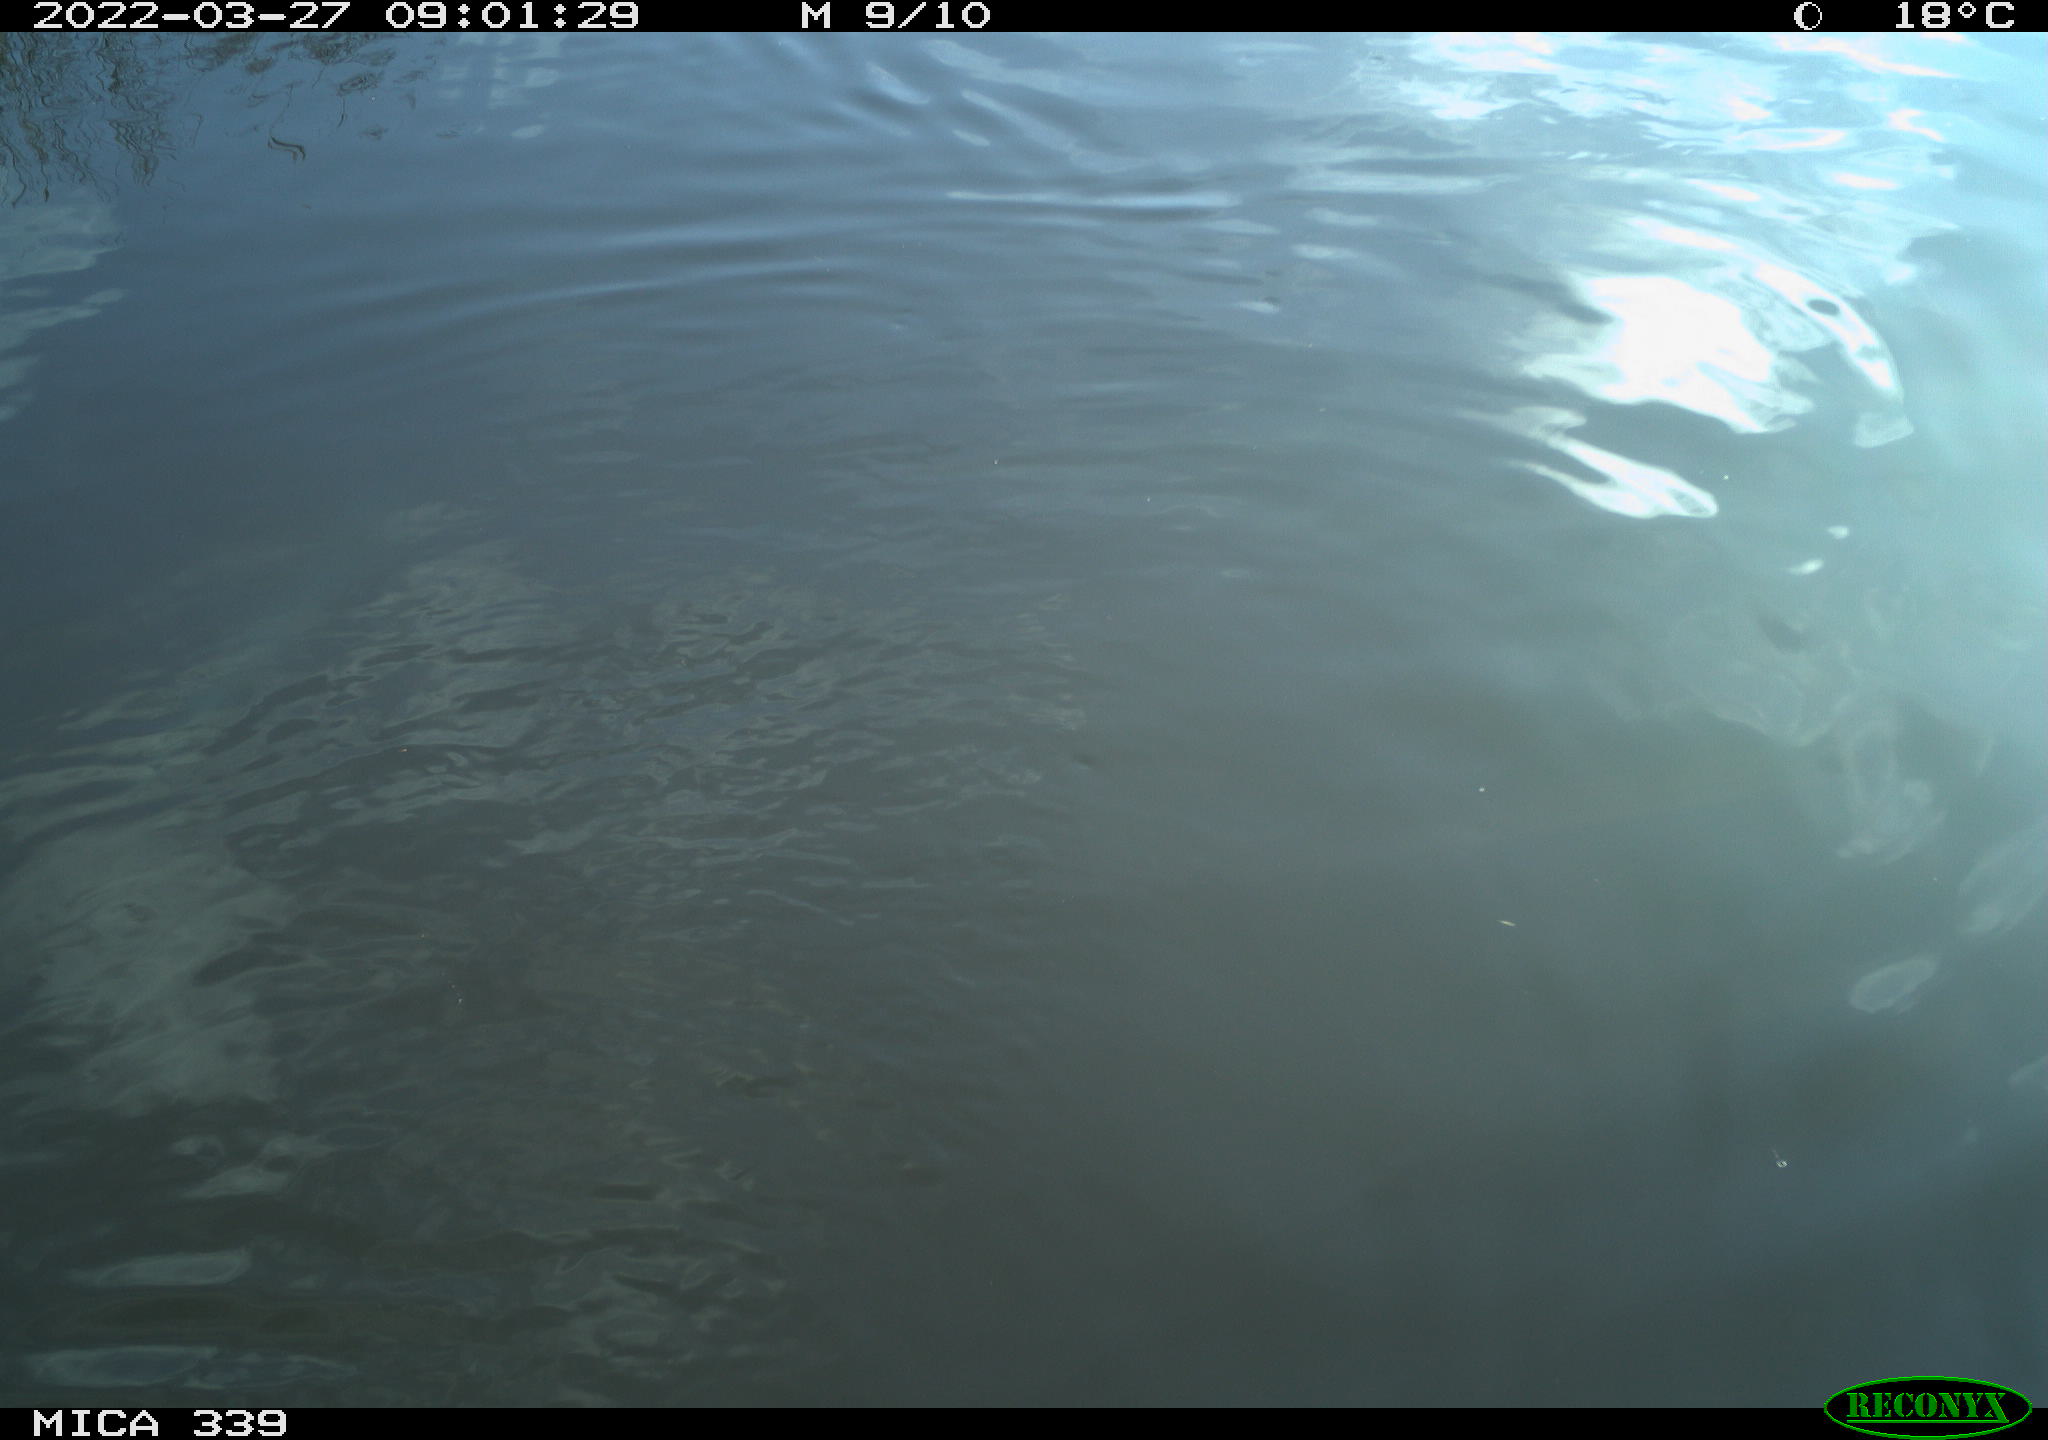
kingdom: Animalia
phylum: Chordata
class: Aves
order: Anseriformes
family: Anatidae
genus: Anas
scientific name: Anas platyrhynchos
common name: Mallard
